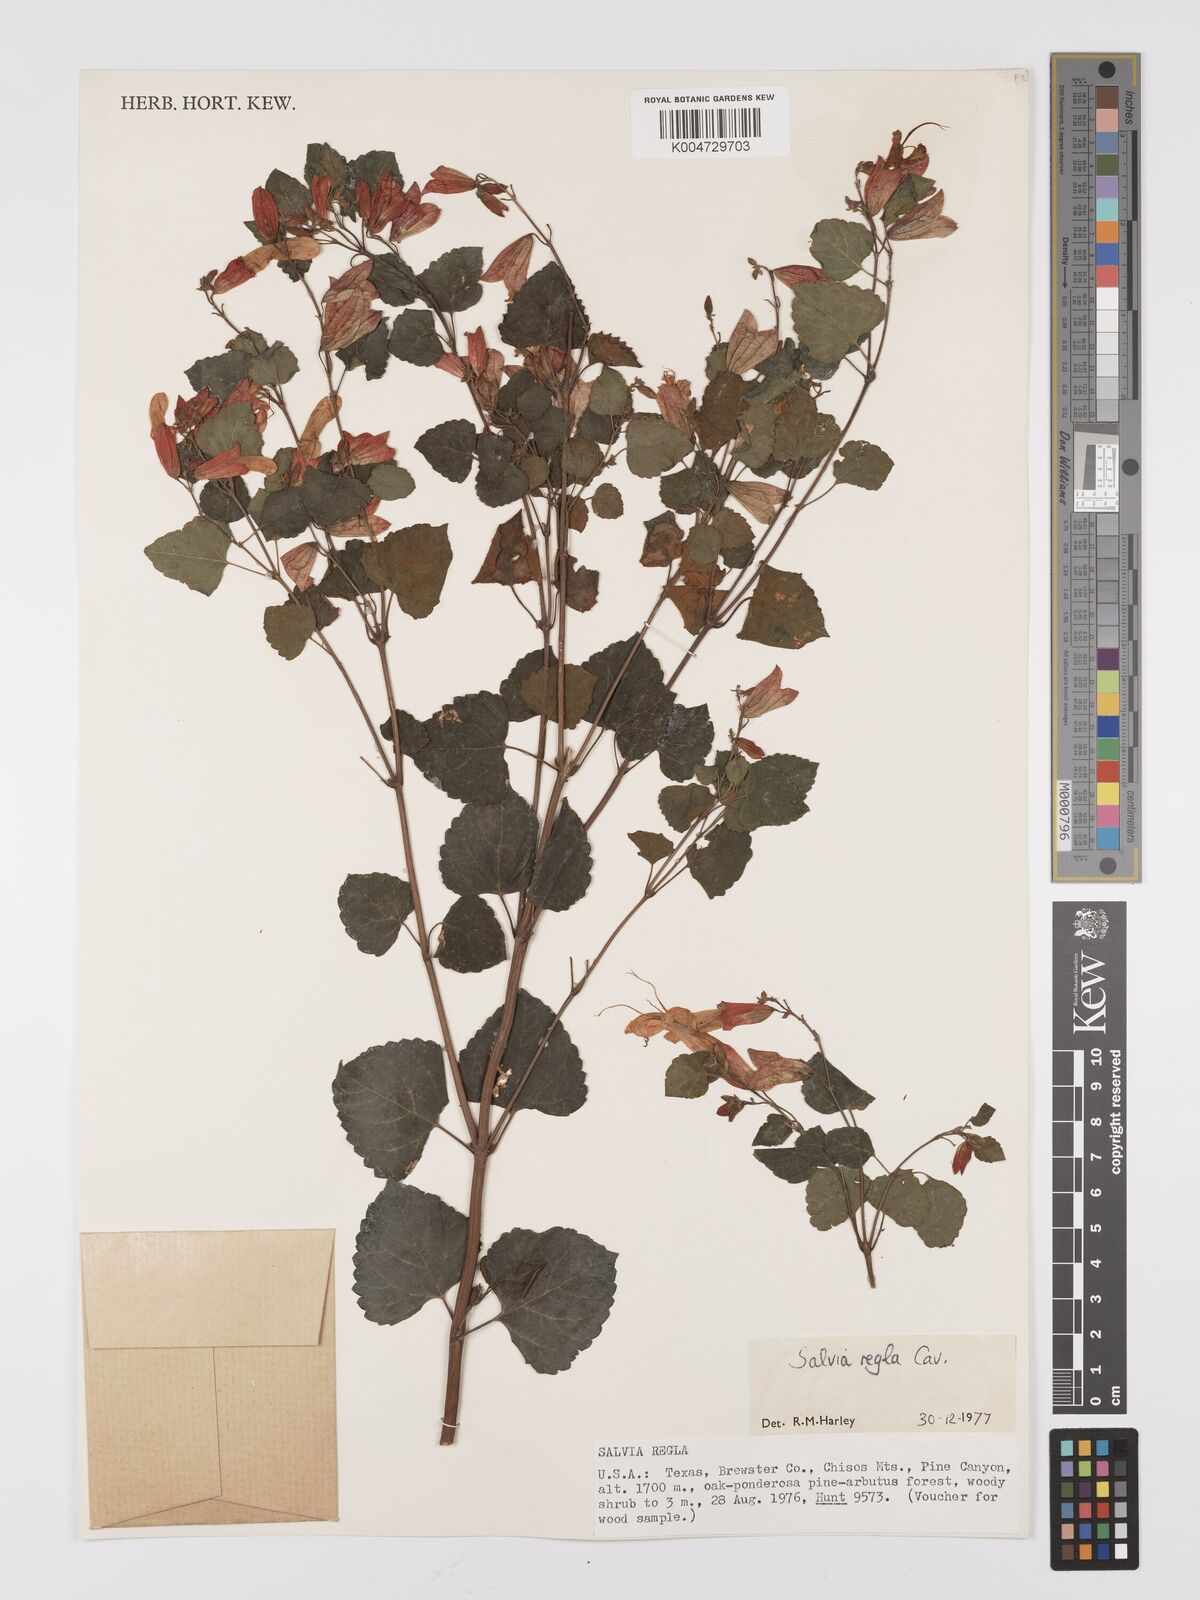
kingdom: Plantae
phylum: Tracheophyta
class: Magnoliopsida
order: Lamiales
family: Lamiaceae
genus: Salvia
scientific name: Salvia regla
